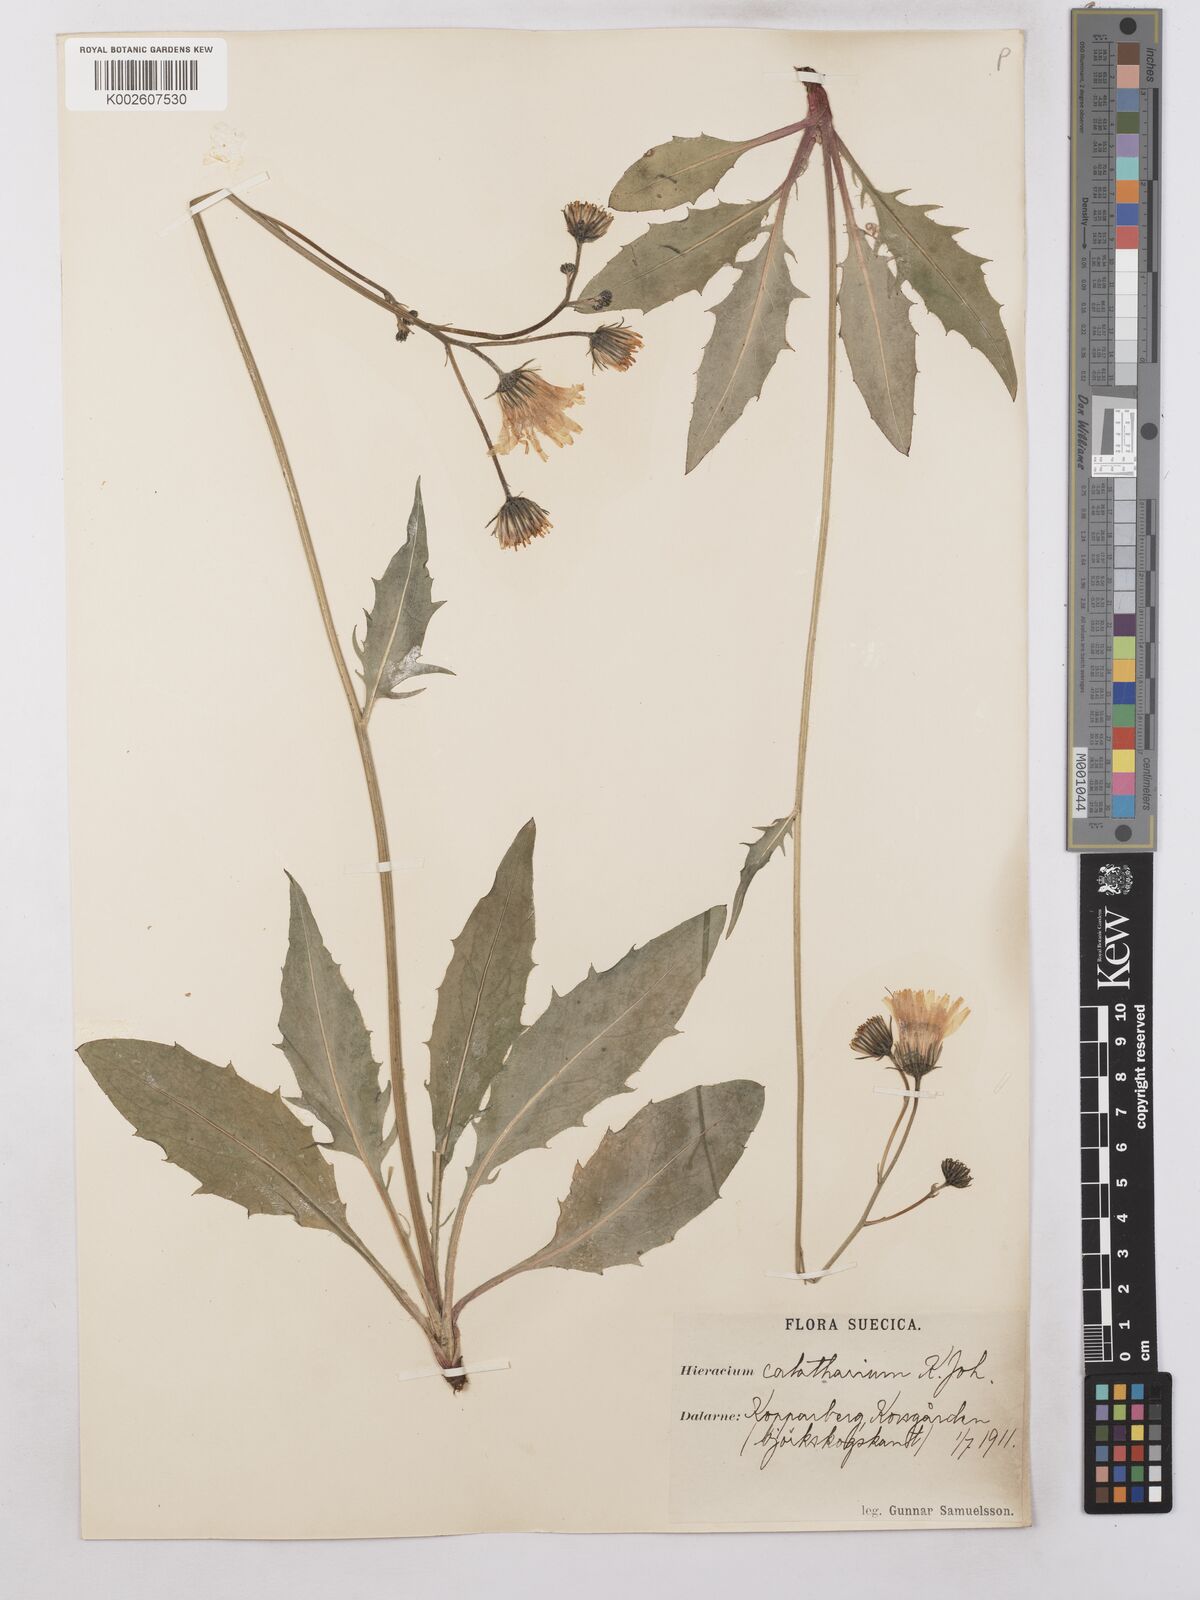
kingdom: Plantae
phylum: Tracheophyta
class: Magnoliopsida
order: Asterales
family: Asteraceae
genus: Hieracium
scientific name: Hieracium caesium
